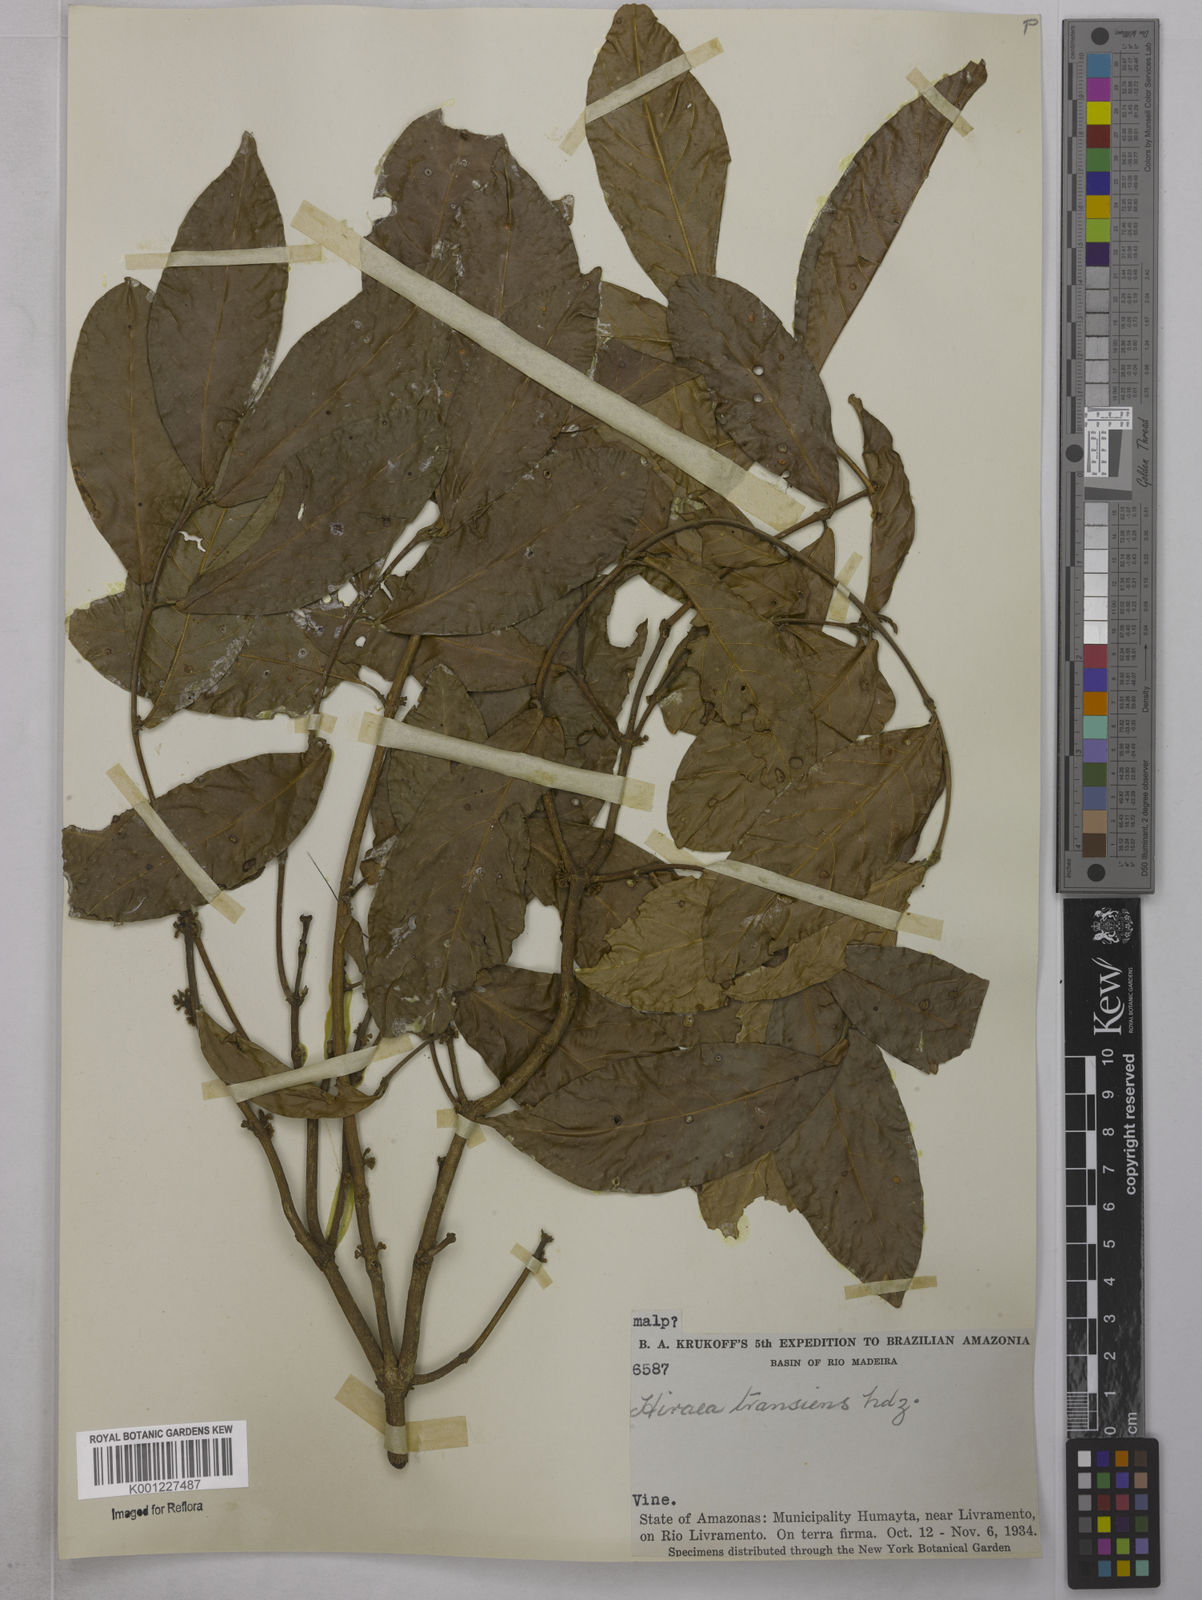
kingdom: Plantae
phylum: Tracheophyta
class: Magnoliopsida
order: Malpighiales
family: Malpighiaceae
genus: Hiraea
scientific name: Hiraea transiens
